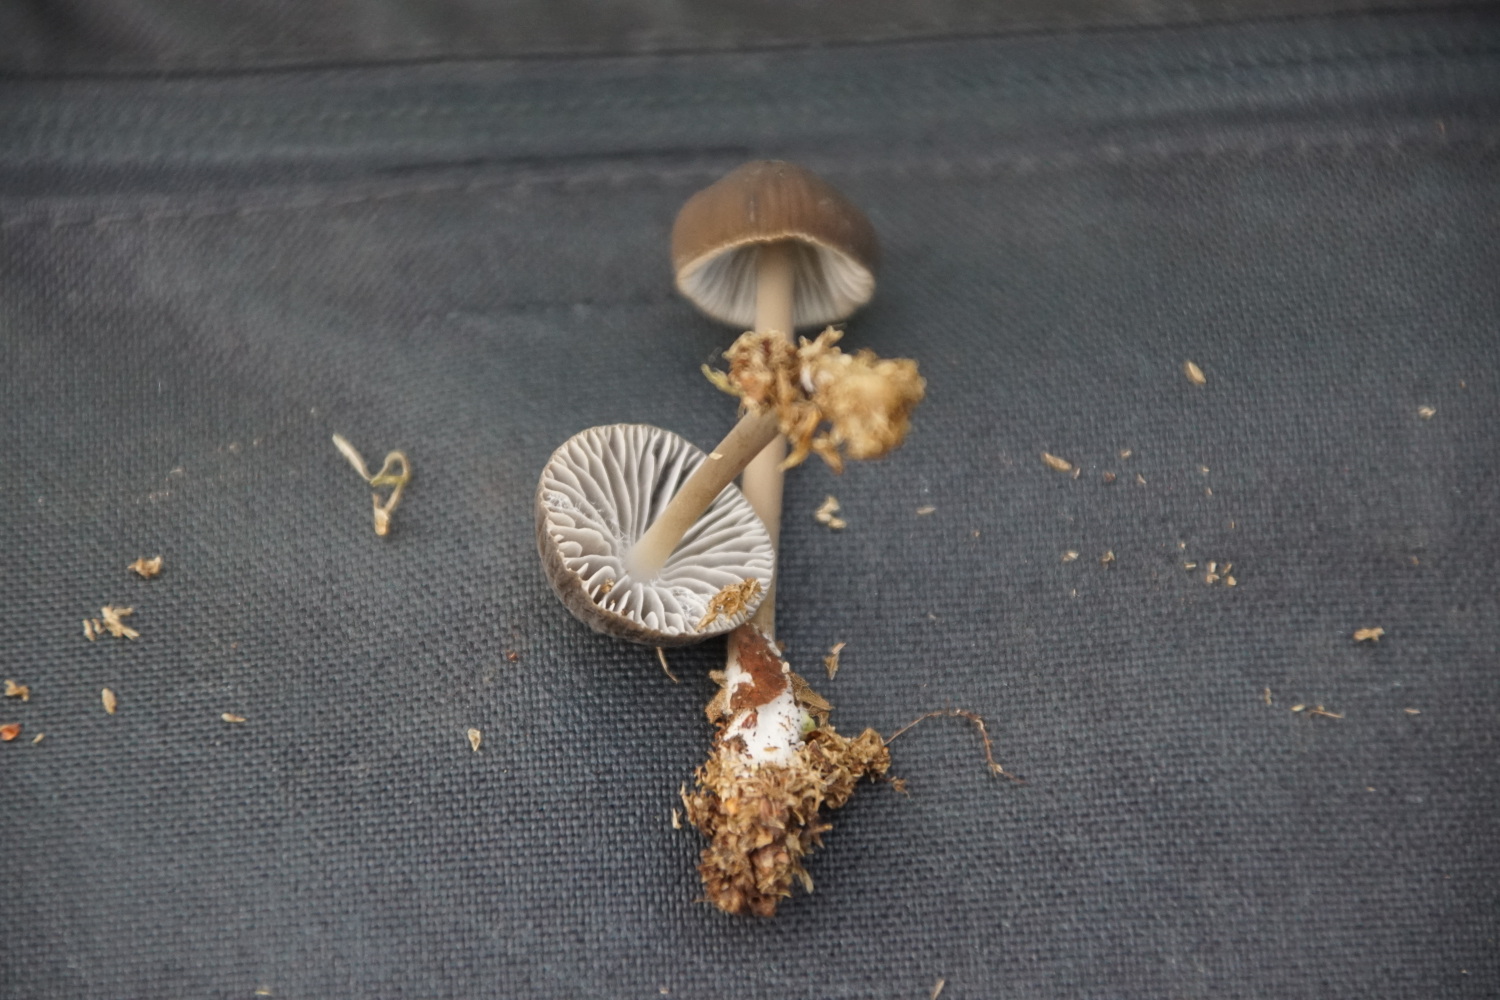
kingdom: Fungi
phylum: Basidiomycota
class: Agaricomycetes
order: Agaricales
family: Mycenaceae
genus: Mycena
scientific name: Mycena megaspora
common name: brusk-huesvamp
